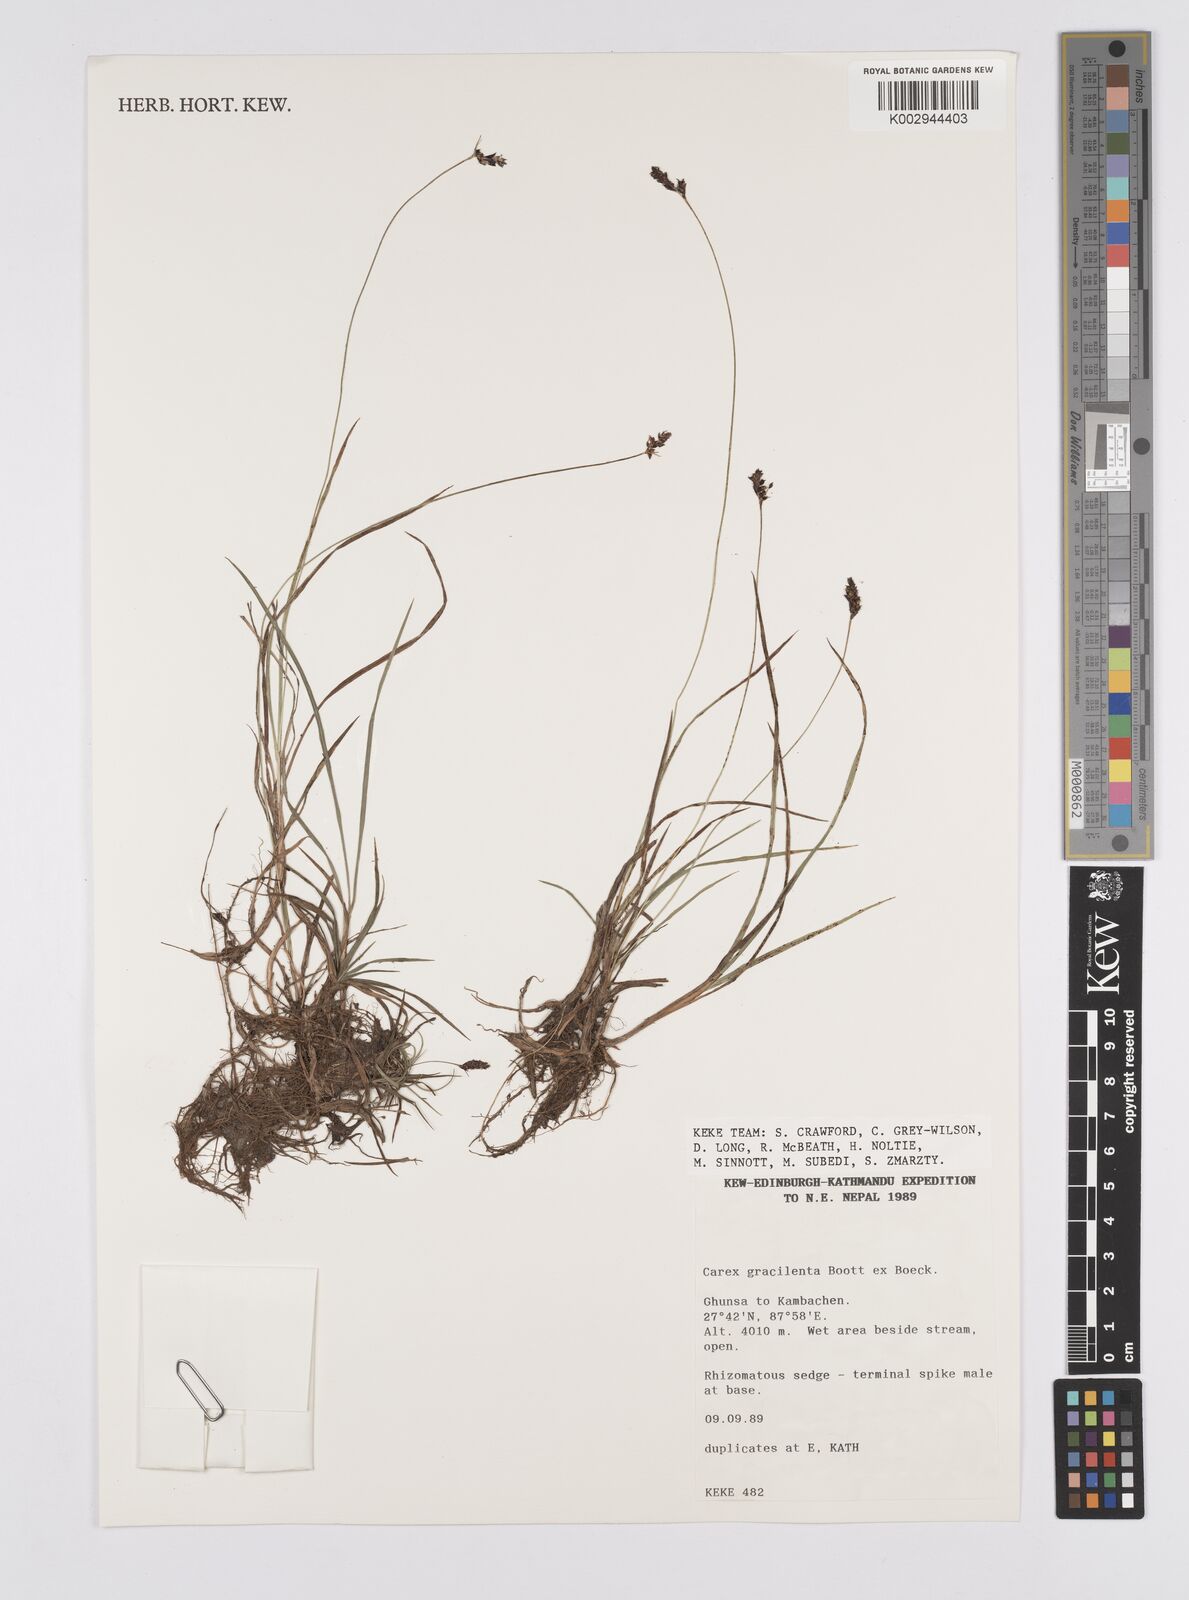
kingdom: Plantae
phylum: Tracheophyta
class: Liliopsida
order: Poales
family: Cyperaceae
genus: Carex
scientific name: Carex norvegica
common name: Close-headed alpine-sedge
